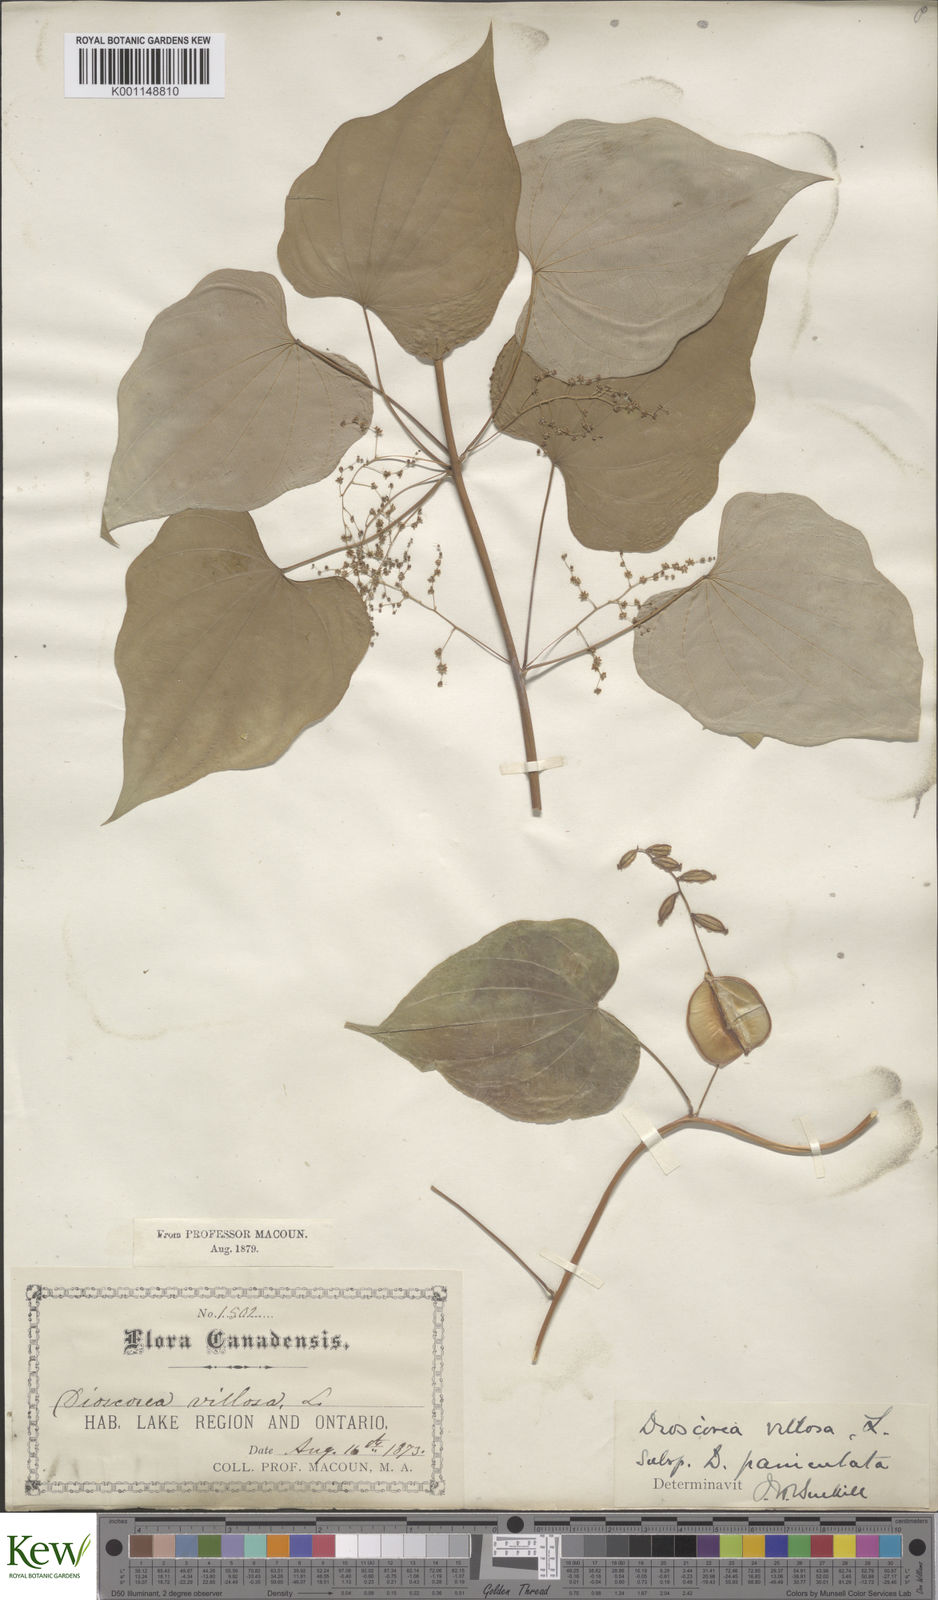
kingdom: Plantae
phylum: Tracheophyta
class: Liliopsida
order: Dioscoreales
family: Dioscoreaceae
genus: Dioscorea
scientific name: Dioscorea villosa
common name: Wild yam
